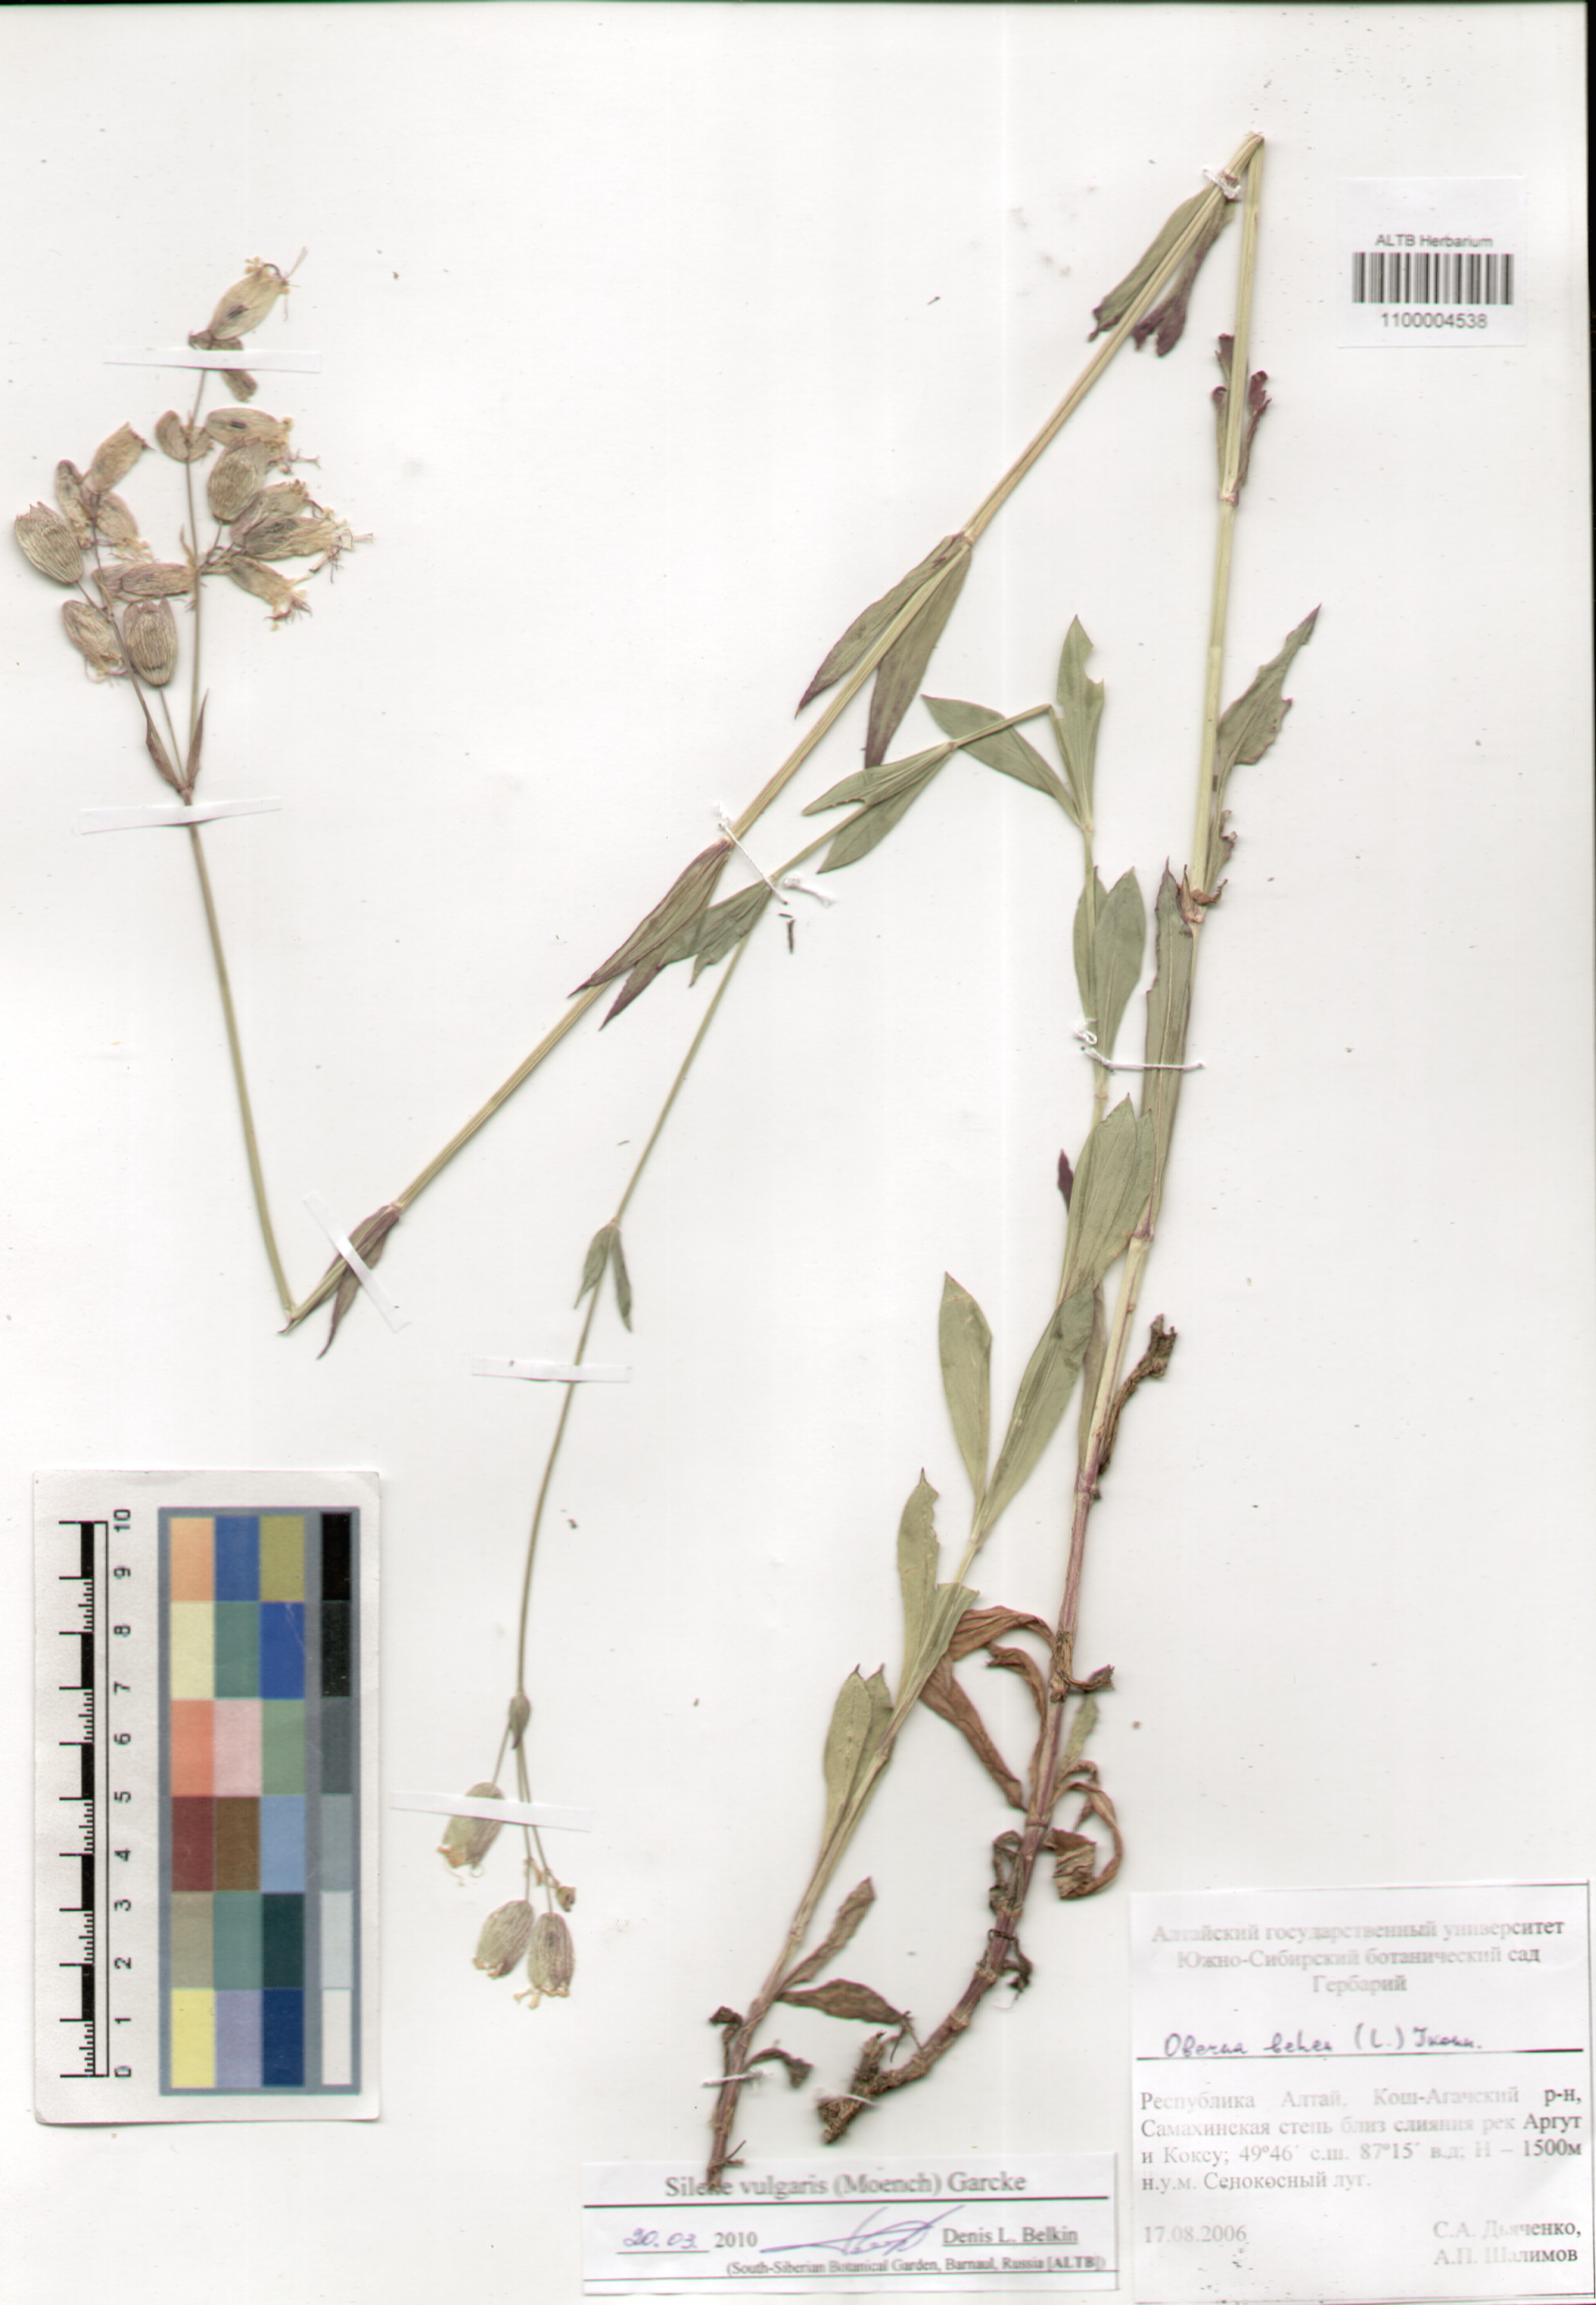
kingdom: Plantae
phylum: Tracheophyta
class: Magnoliopsida
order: Caryophyllales
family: Caryophyllaceae
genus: Silene
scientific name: Silene vulgaris
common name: Bladder campion
